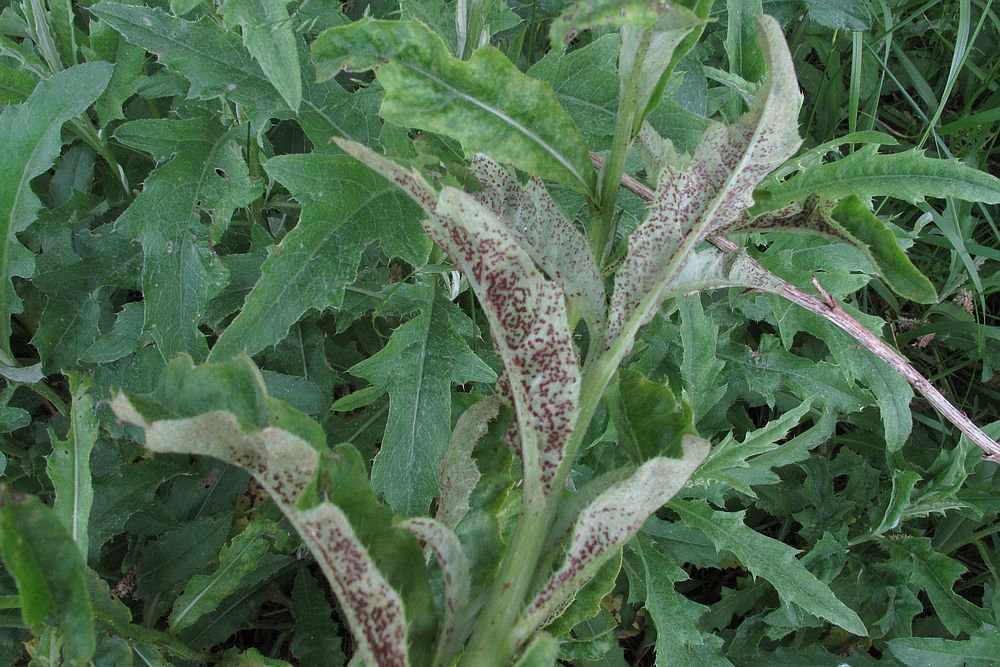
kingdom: Fungi
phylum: Basidiomycota
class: Pucciniomycetes
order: Pucciniales
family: Pucciniaceae
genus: Puccinia
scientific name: Puccinia suaveolens
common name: tidsel-tvecellerust
